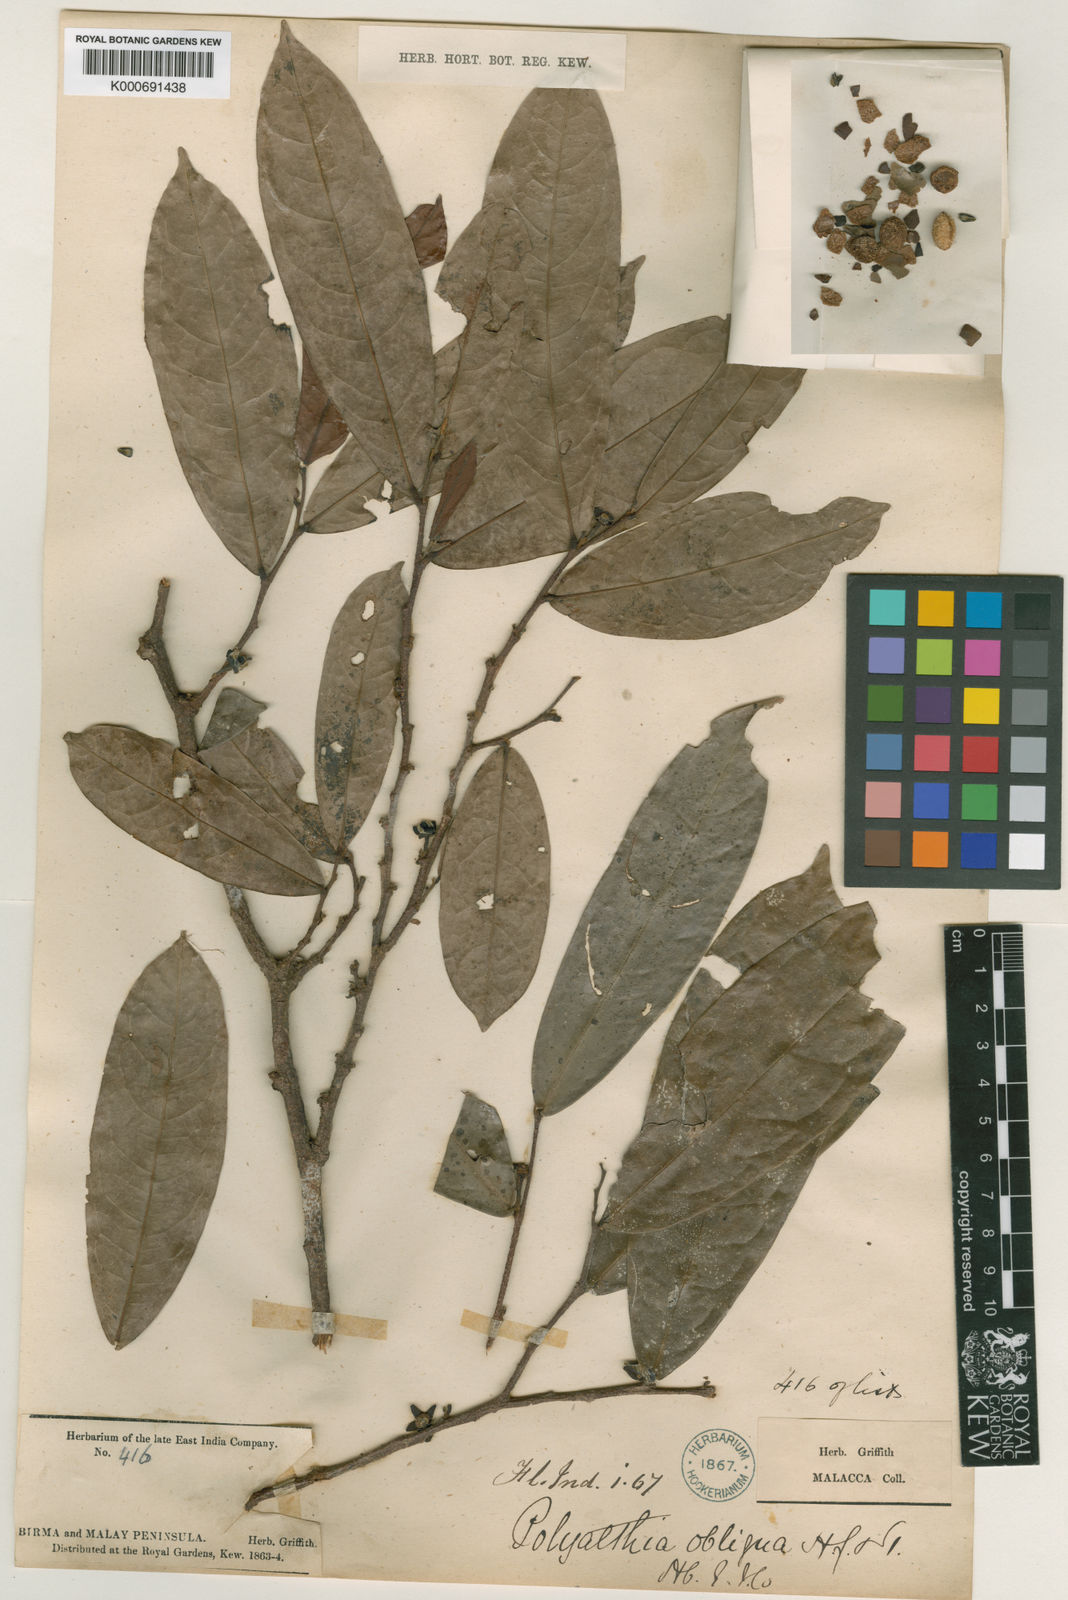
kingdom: Plantae
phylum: Tracheophyta
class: Magnoliopsida
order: Magnoliales
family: Annonaceae
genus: Polyalthia
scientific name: Polyalthia obliqua
